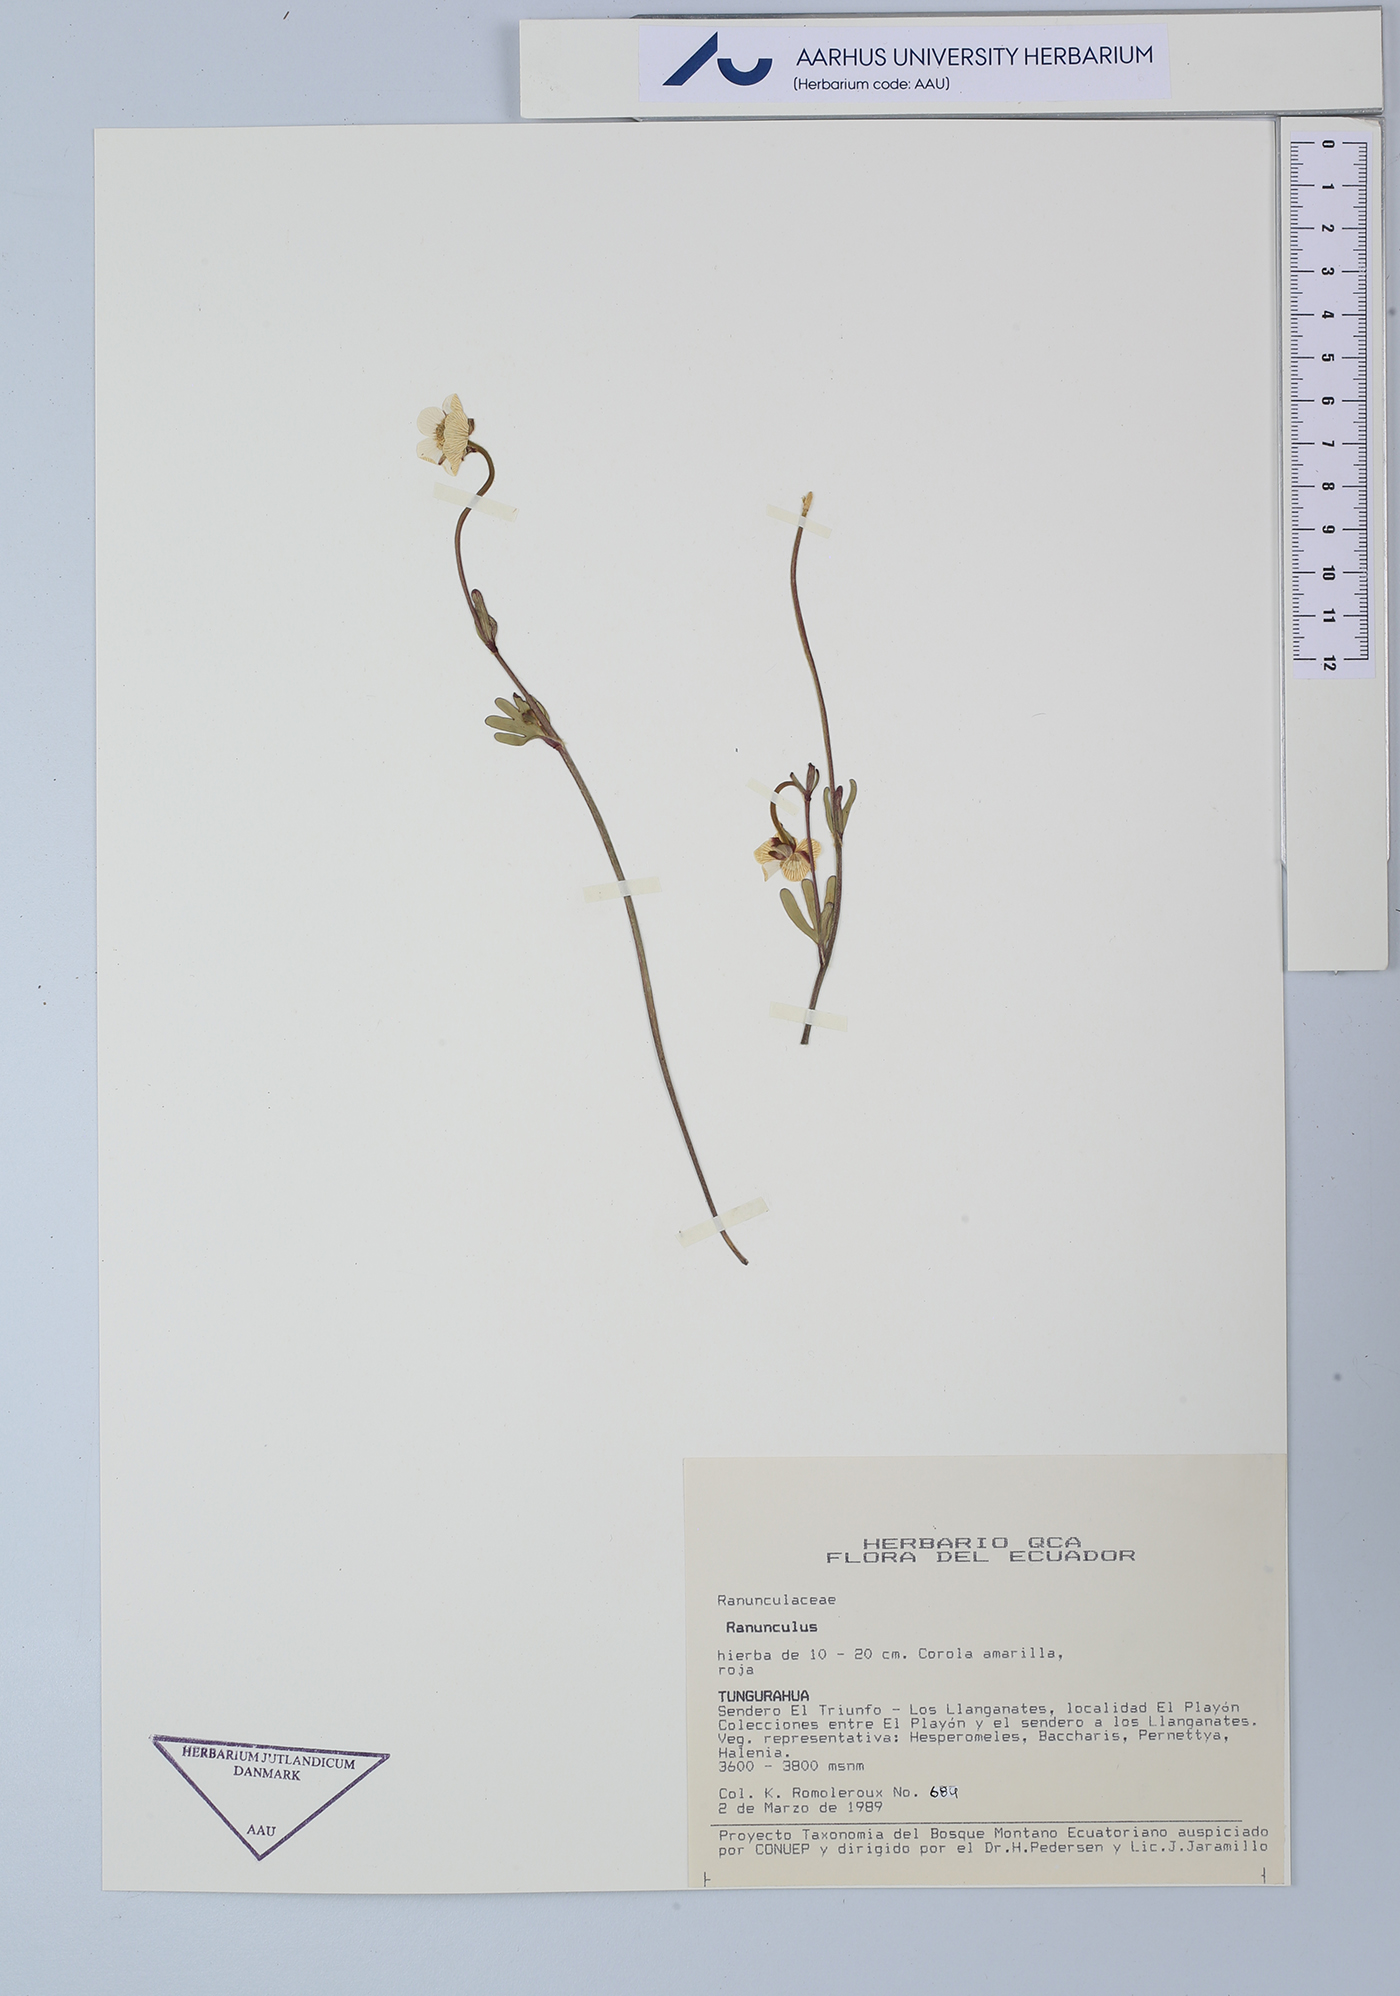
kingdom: Plantae
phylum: Tracheophyta
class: Magnoliopsida
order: Ranunculales
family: Ranunculaceae
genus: Ranunculus
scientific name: Ranunculus
